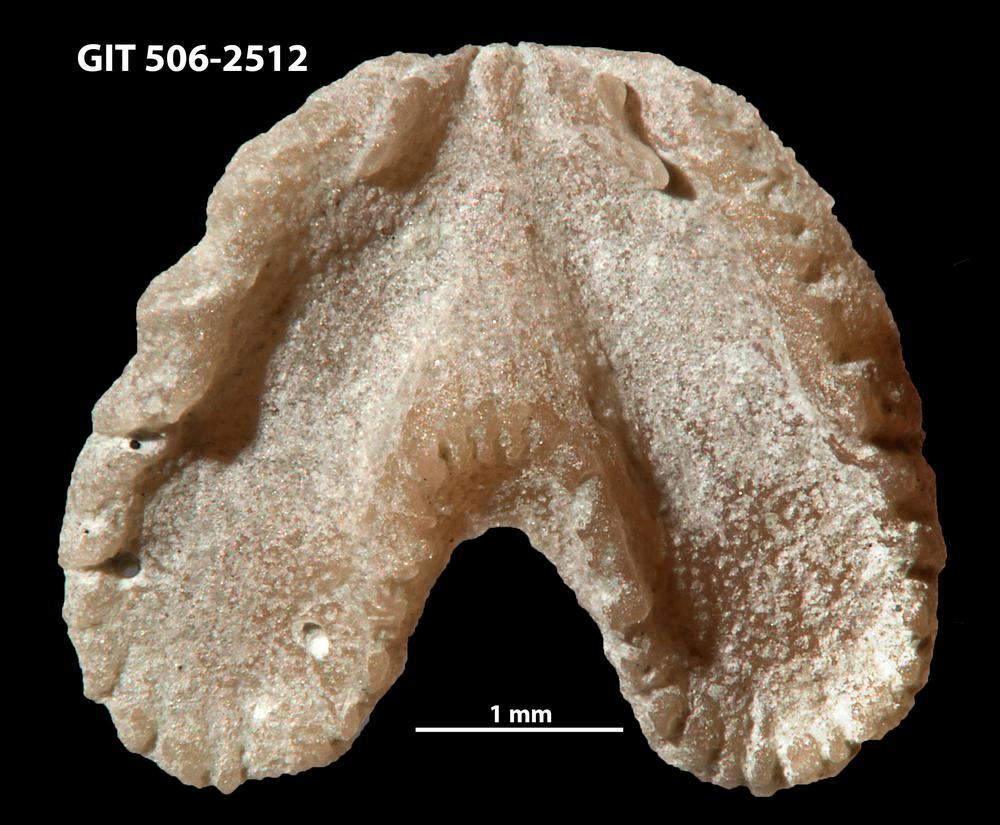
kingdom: Animalia
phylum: Brachiopoda
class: Rhynchonellata
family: Dicoelosiidae
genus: Dicoelosia
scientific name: Dicoelosia baltica
